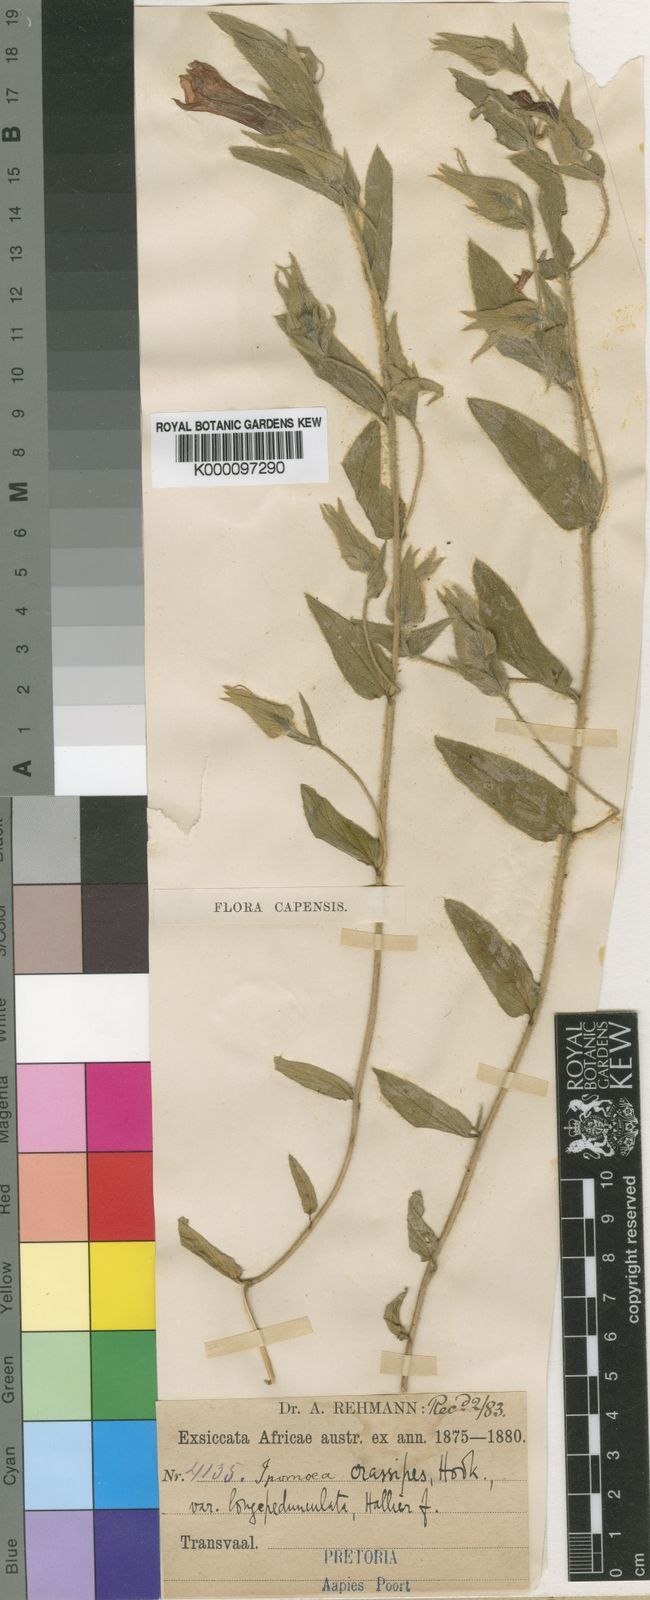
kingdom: Plantae
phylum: Tracheophyta
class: Magnoliopsida
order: Solanales
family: Convolvulaceae
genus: Ipomoea
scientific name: Ipomoea crassipes
